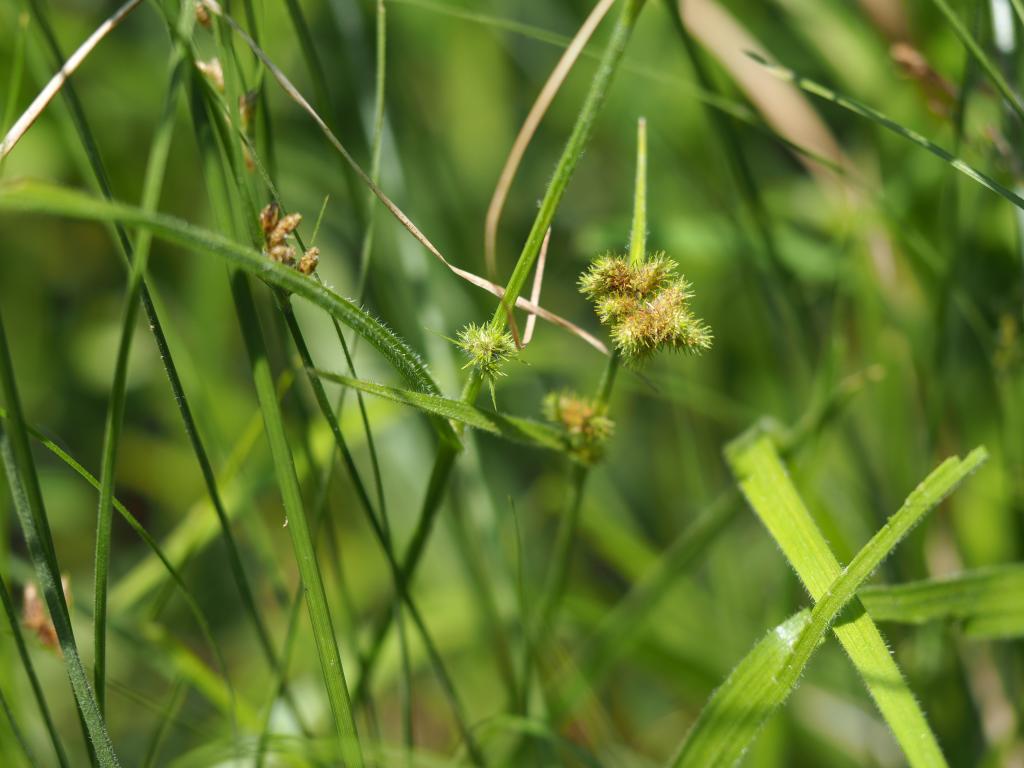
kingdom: Plantae
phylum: Tracheophyta
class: Liliopsida
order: Poales
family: Cyperaceae
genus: Fuirena
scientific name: Fuirena ciliaris
